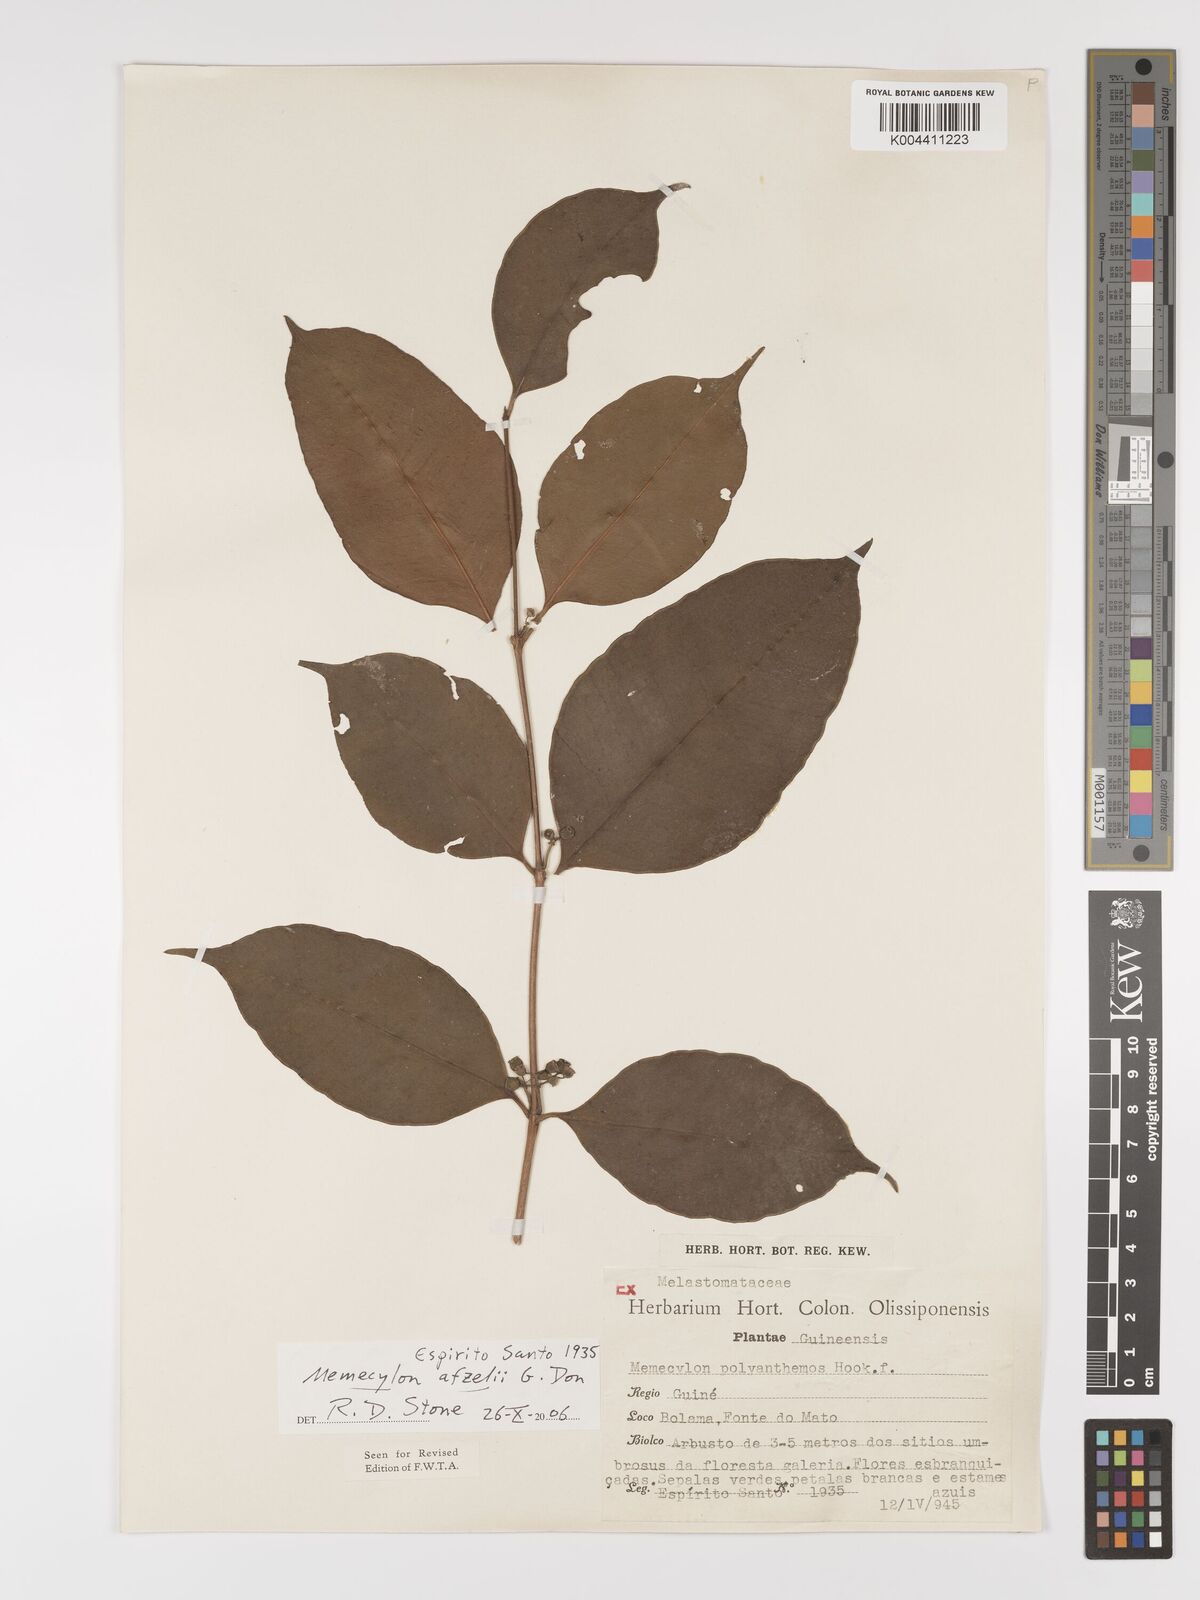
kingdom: Plantae
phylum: Tracheophyta
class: Magnoliopsida
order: Myrtales
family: Melastomataceae
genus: Memecylon
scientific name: Memecylon afzelii
